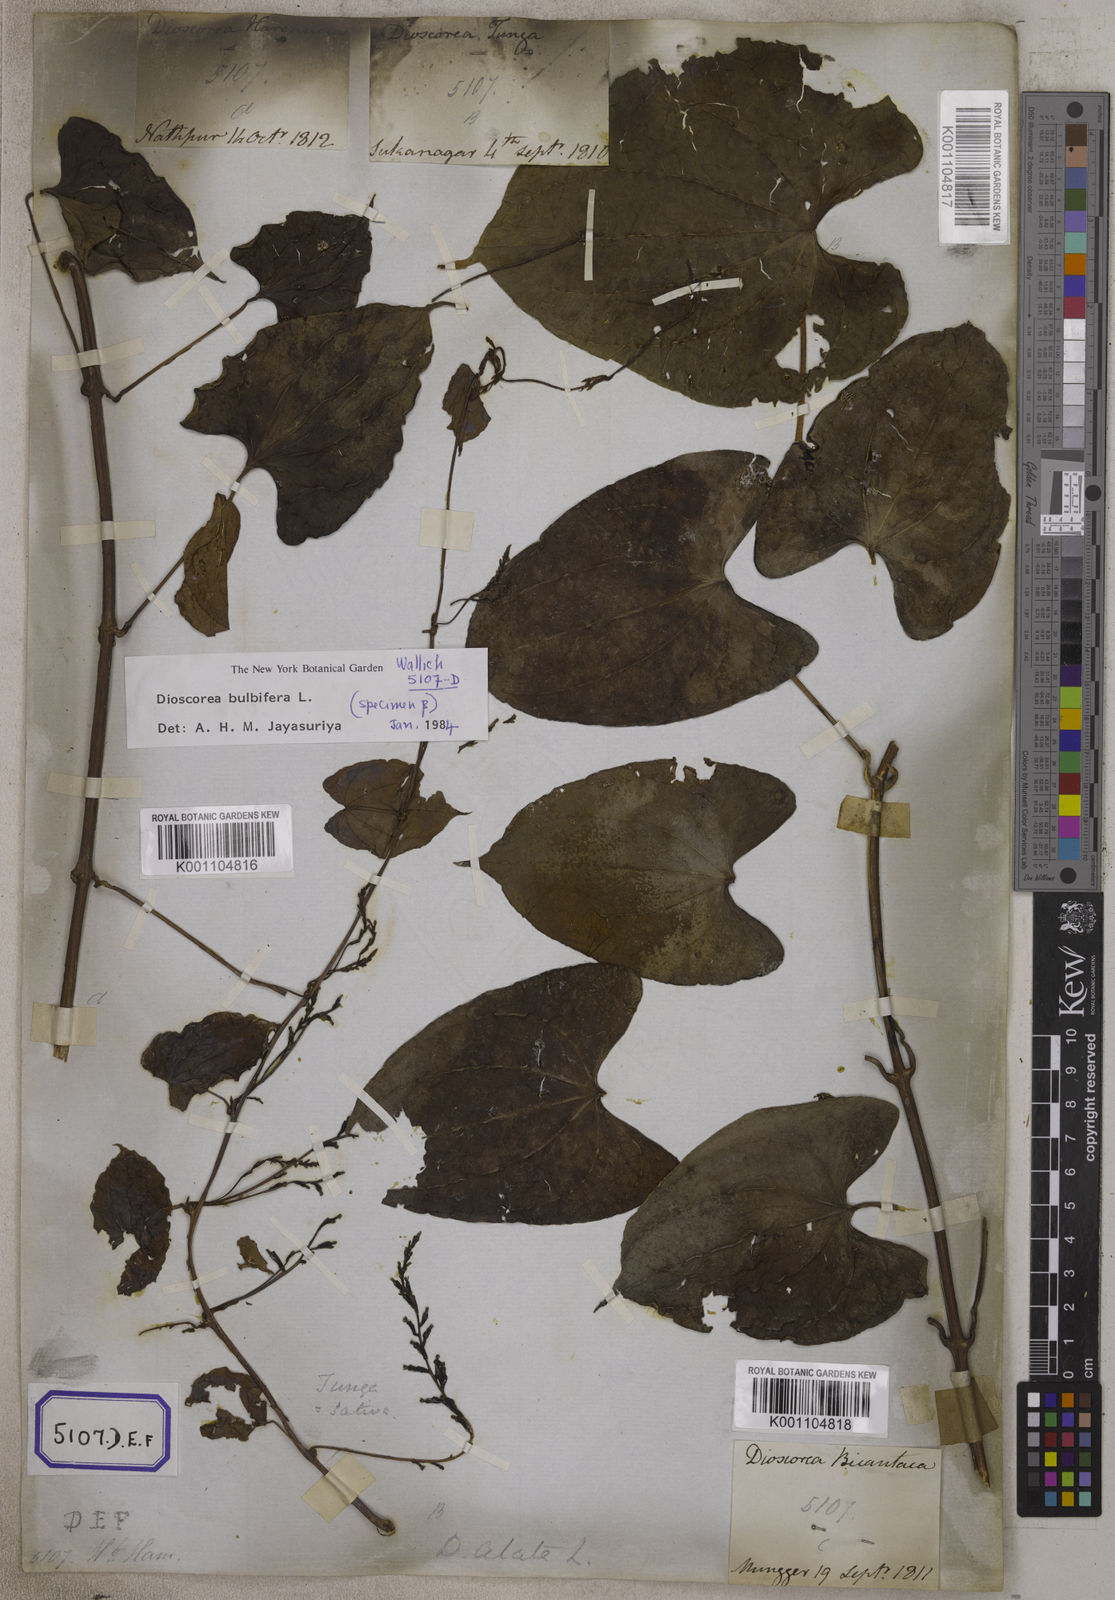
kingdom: Plantae
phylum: Tracheophyta
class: Liliopsida
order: Dioscoreales
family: Dioscoreaceae
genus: Dioscorea
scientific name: Dioscorea
